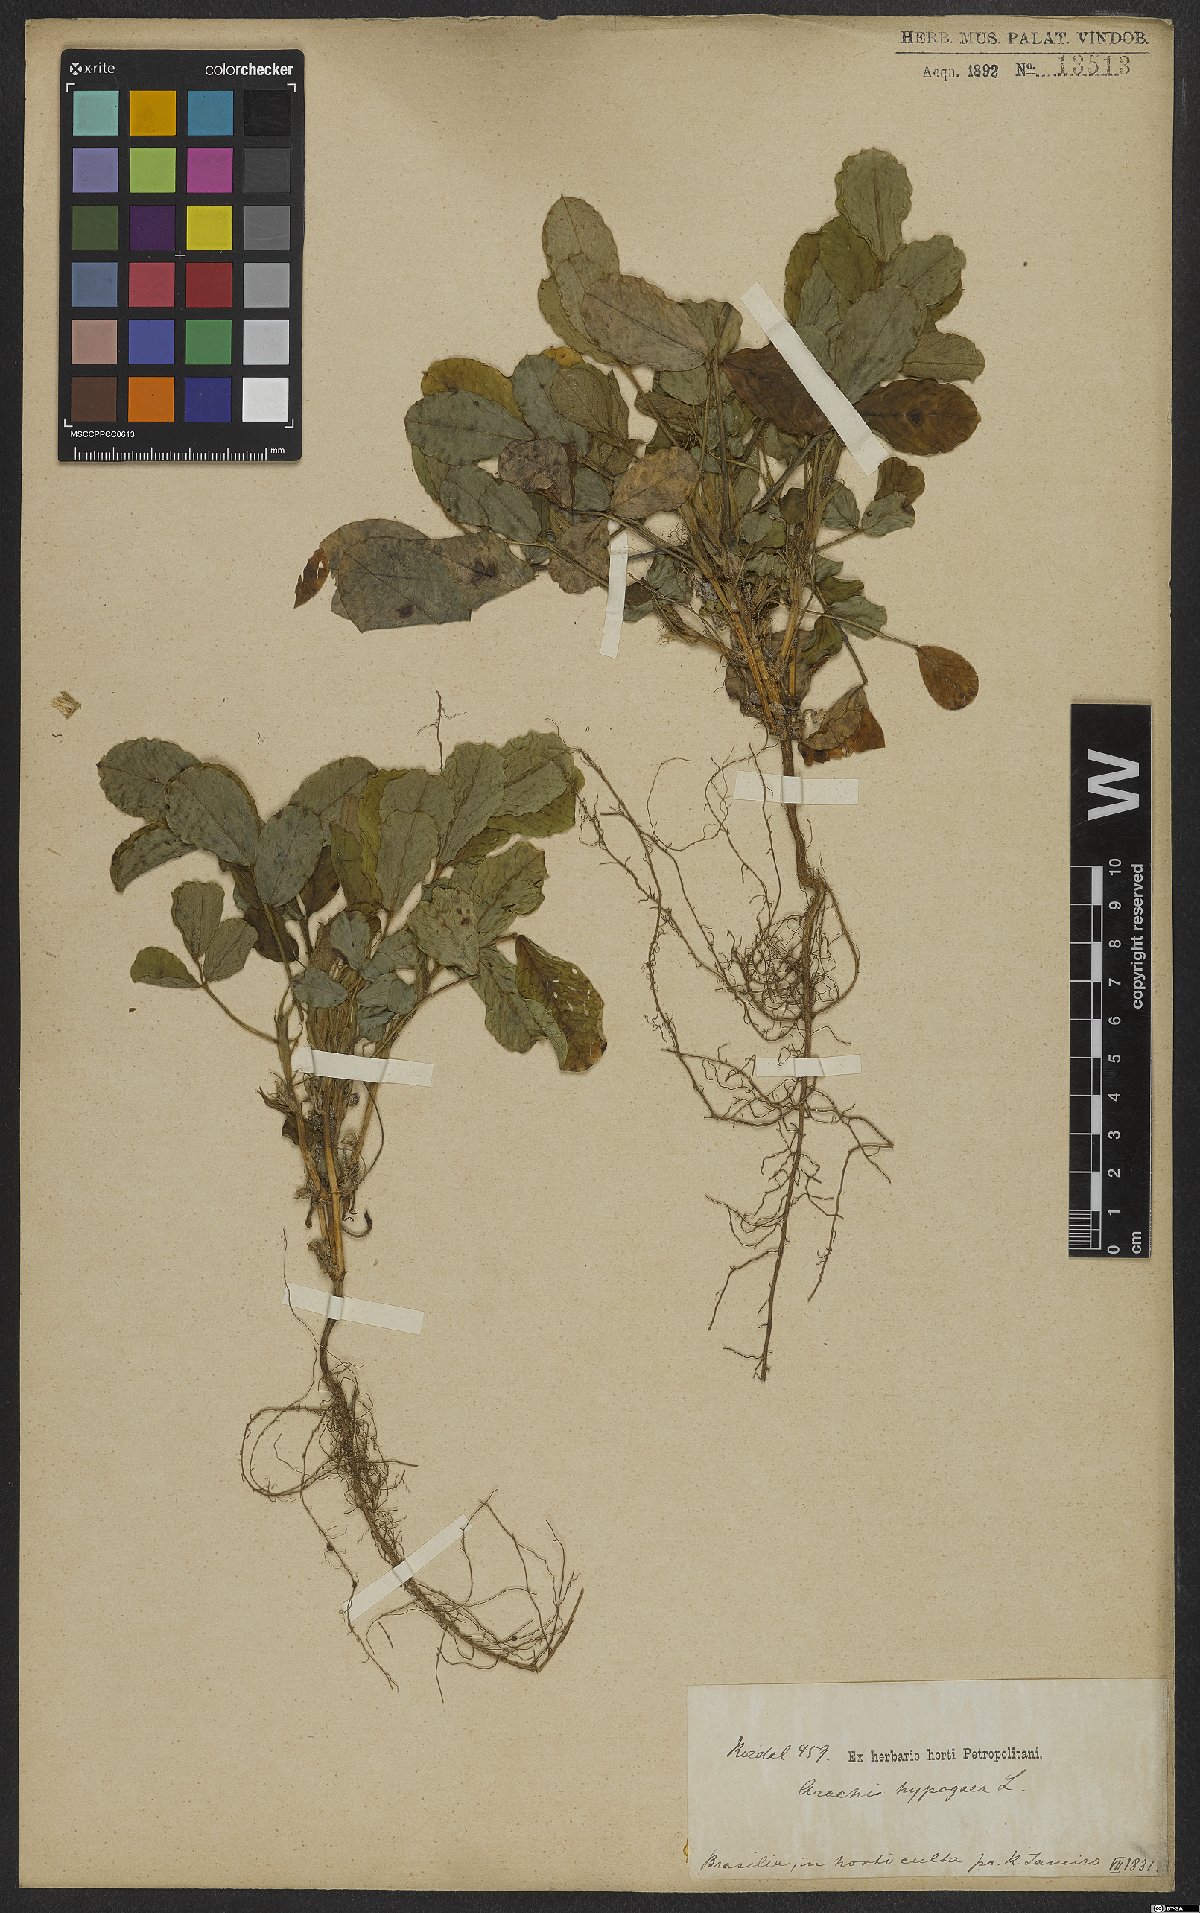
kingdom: Plantae
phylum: Tracheophyta
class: Magnoliopsida
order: Fabales
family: Fabaceae
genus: Arachis
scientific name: Arachis hypogaea
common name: Peanut
